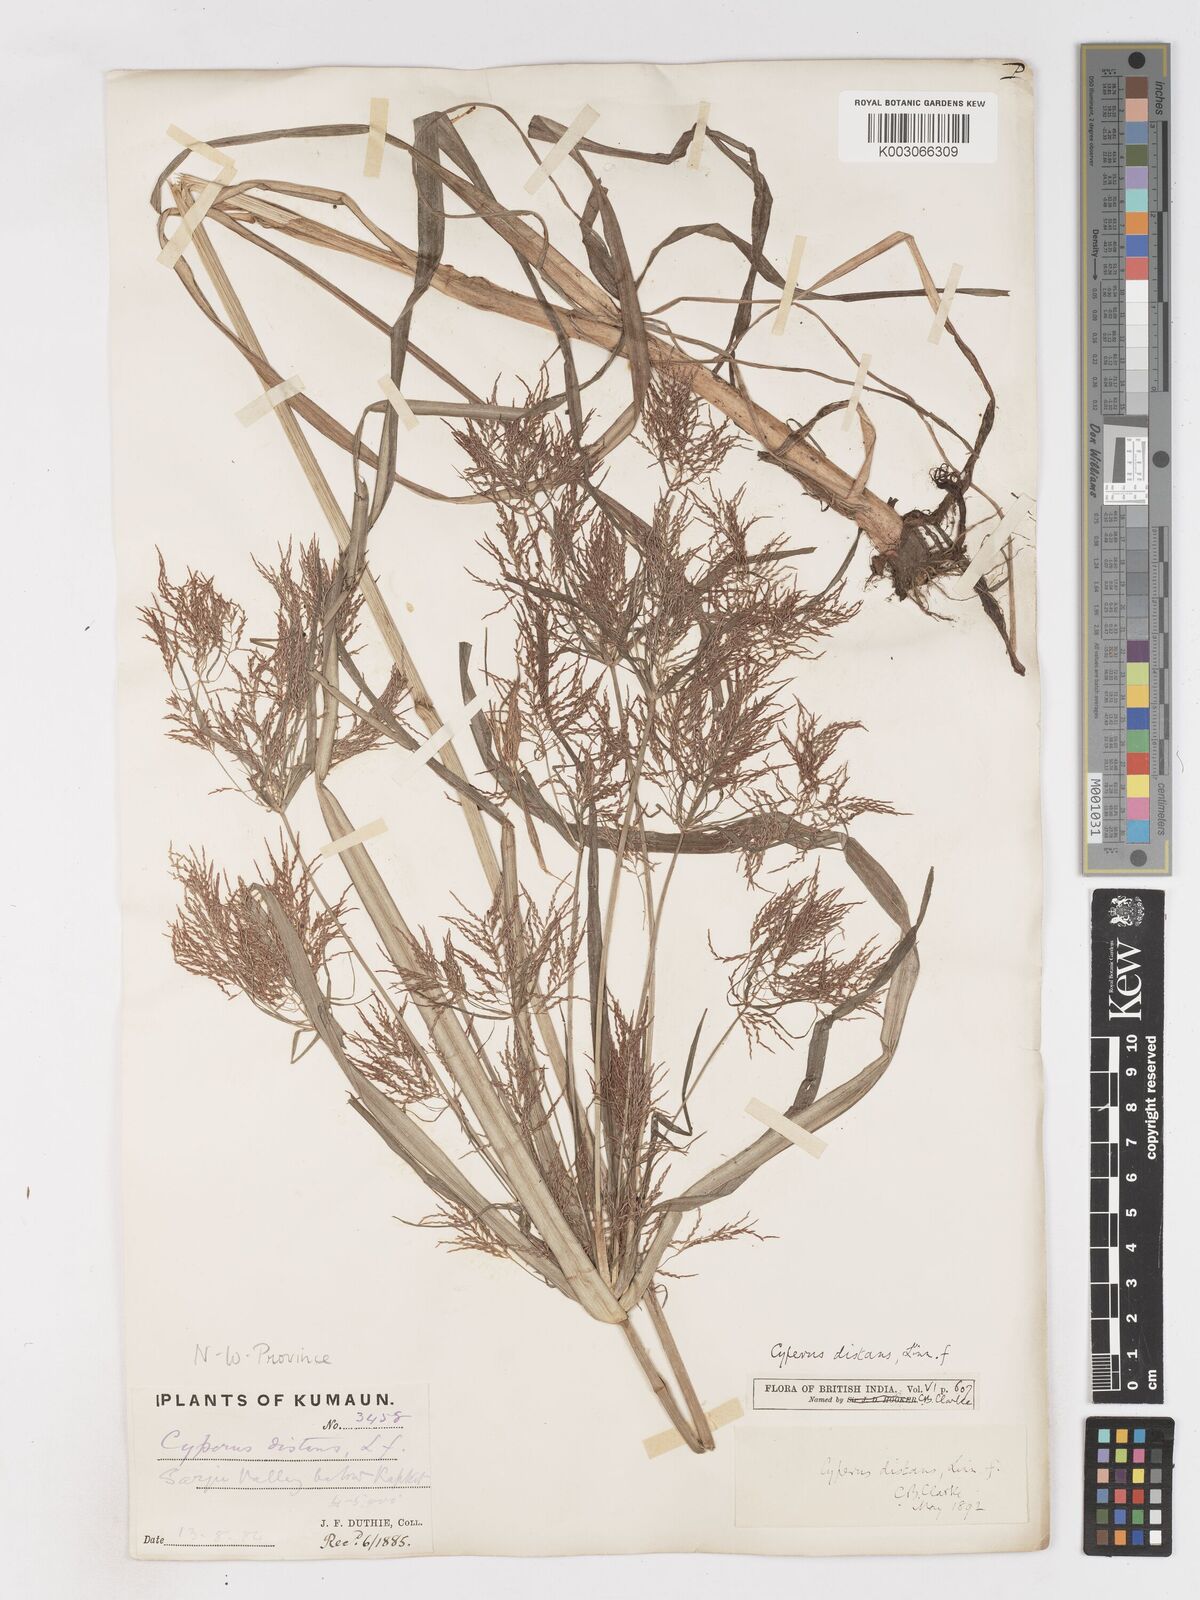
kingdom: Plantae
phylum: Tracheophyta
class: Liliopsida
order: Poales
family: Cyperaceae
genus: Cyperus
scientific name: Cyperus distans
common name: Slender cyperus
